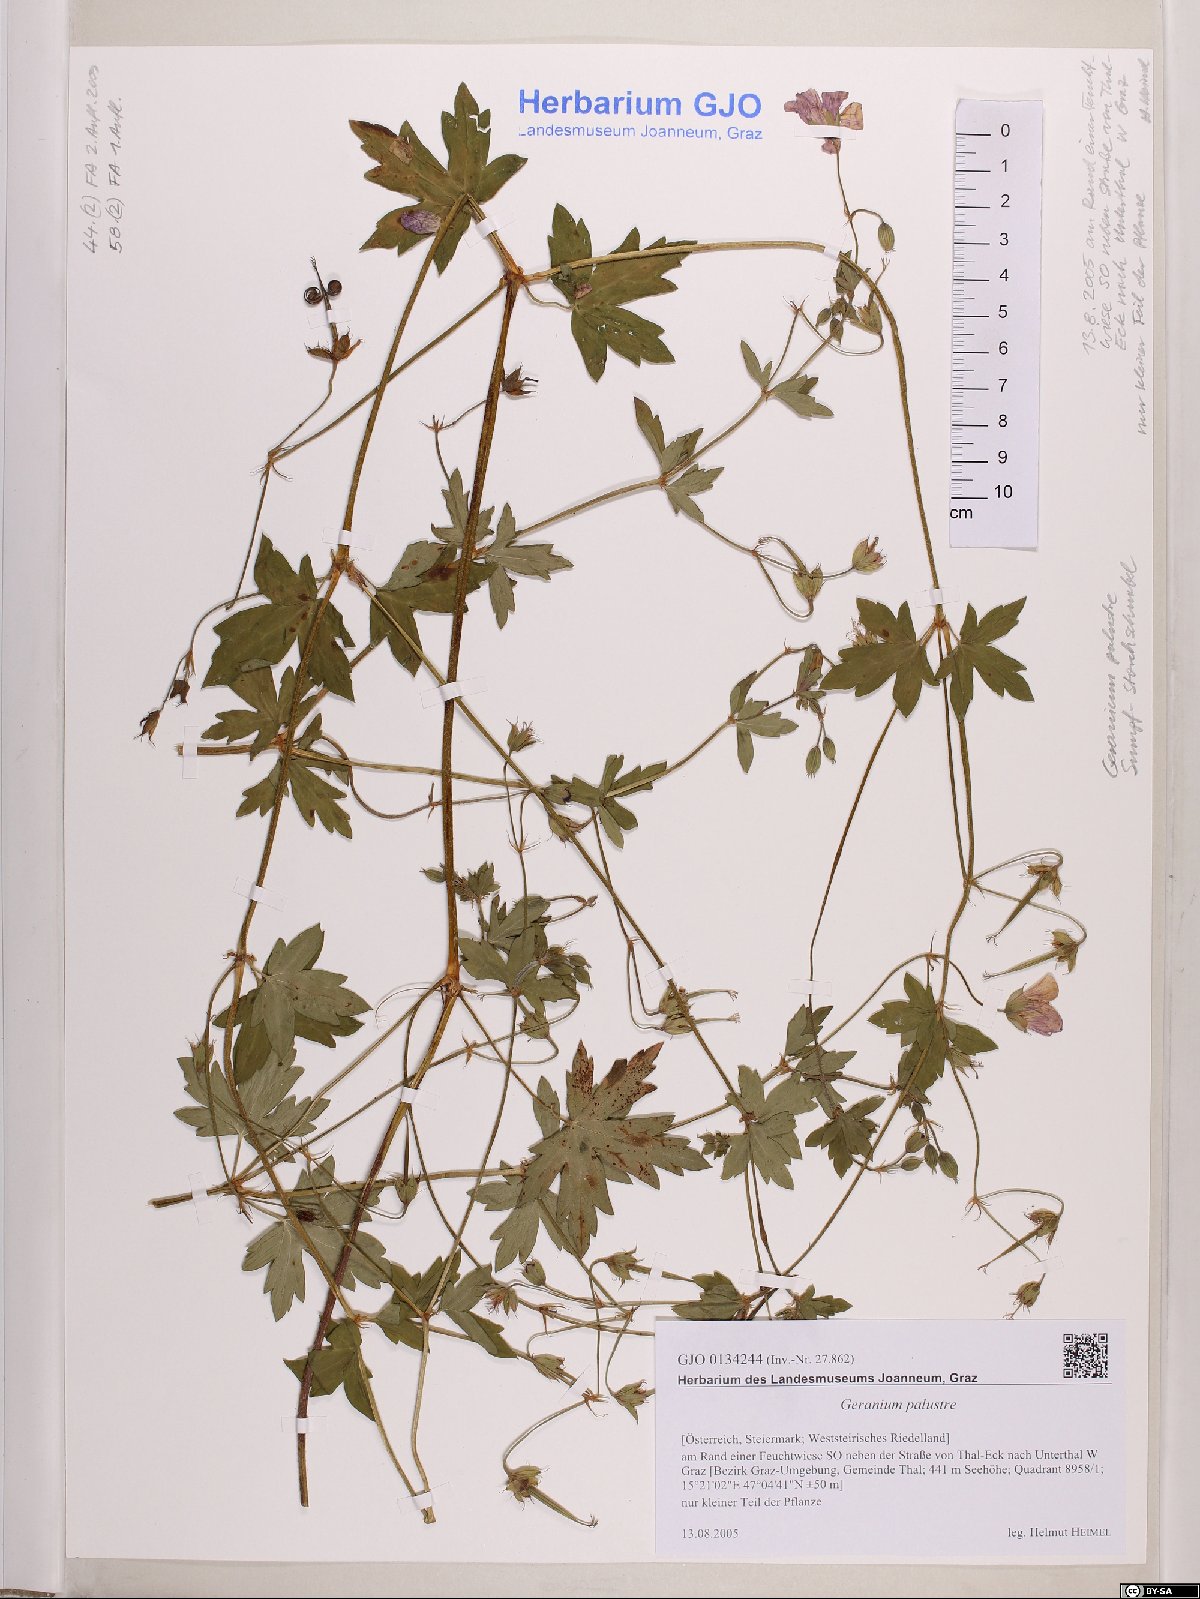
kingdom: Plantae
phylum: Tracheophyta
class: Magnoliopsida
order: Geraniales
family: Geraniaceae
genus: Geranium
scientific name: Geranium palustre
